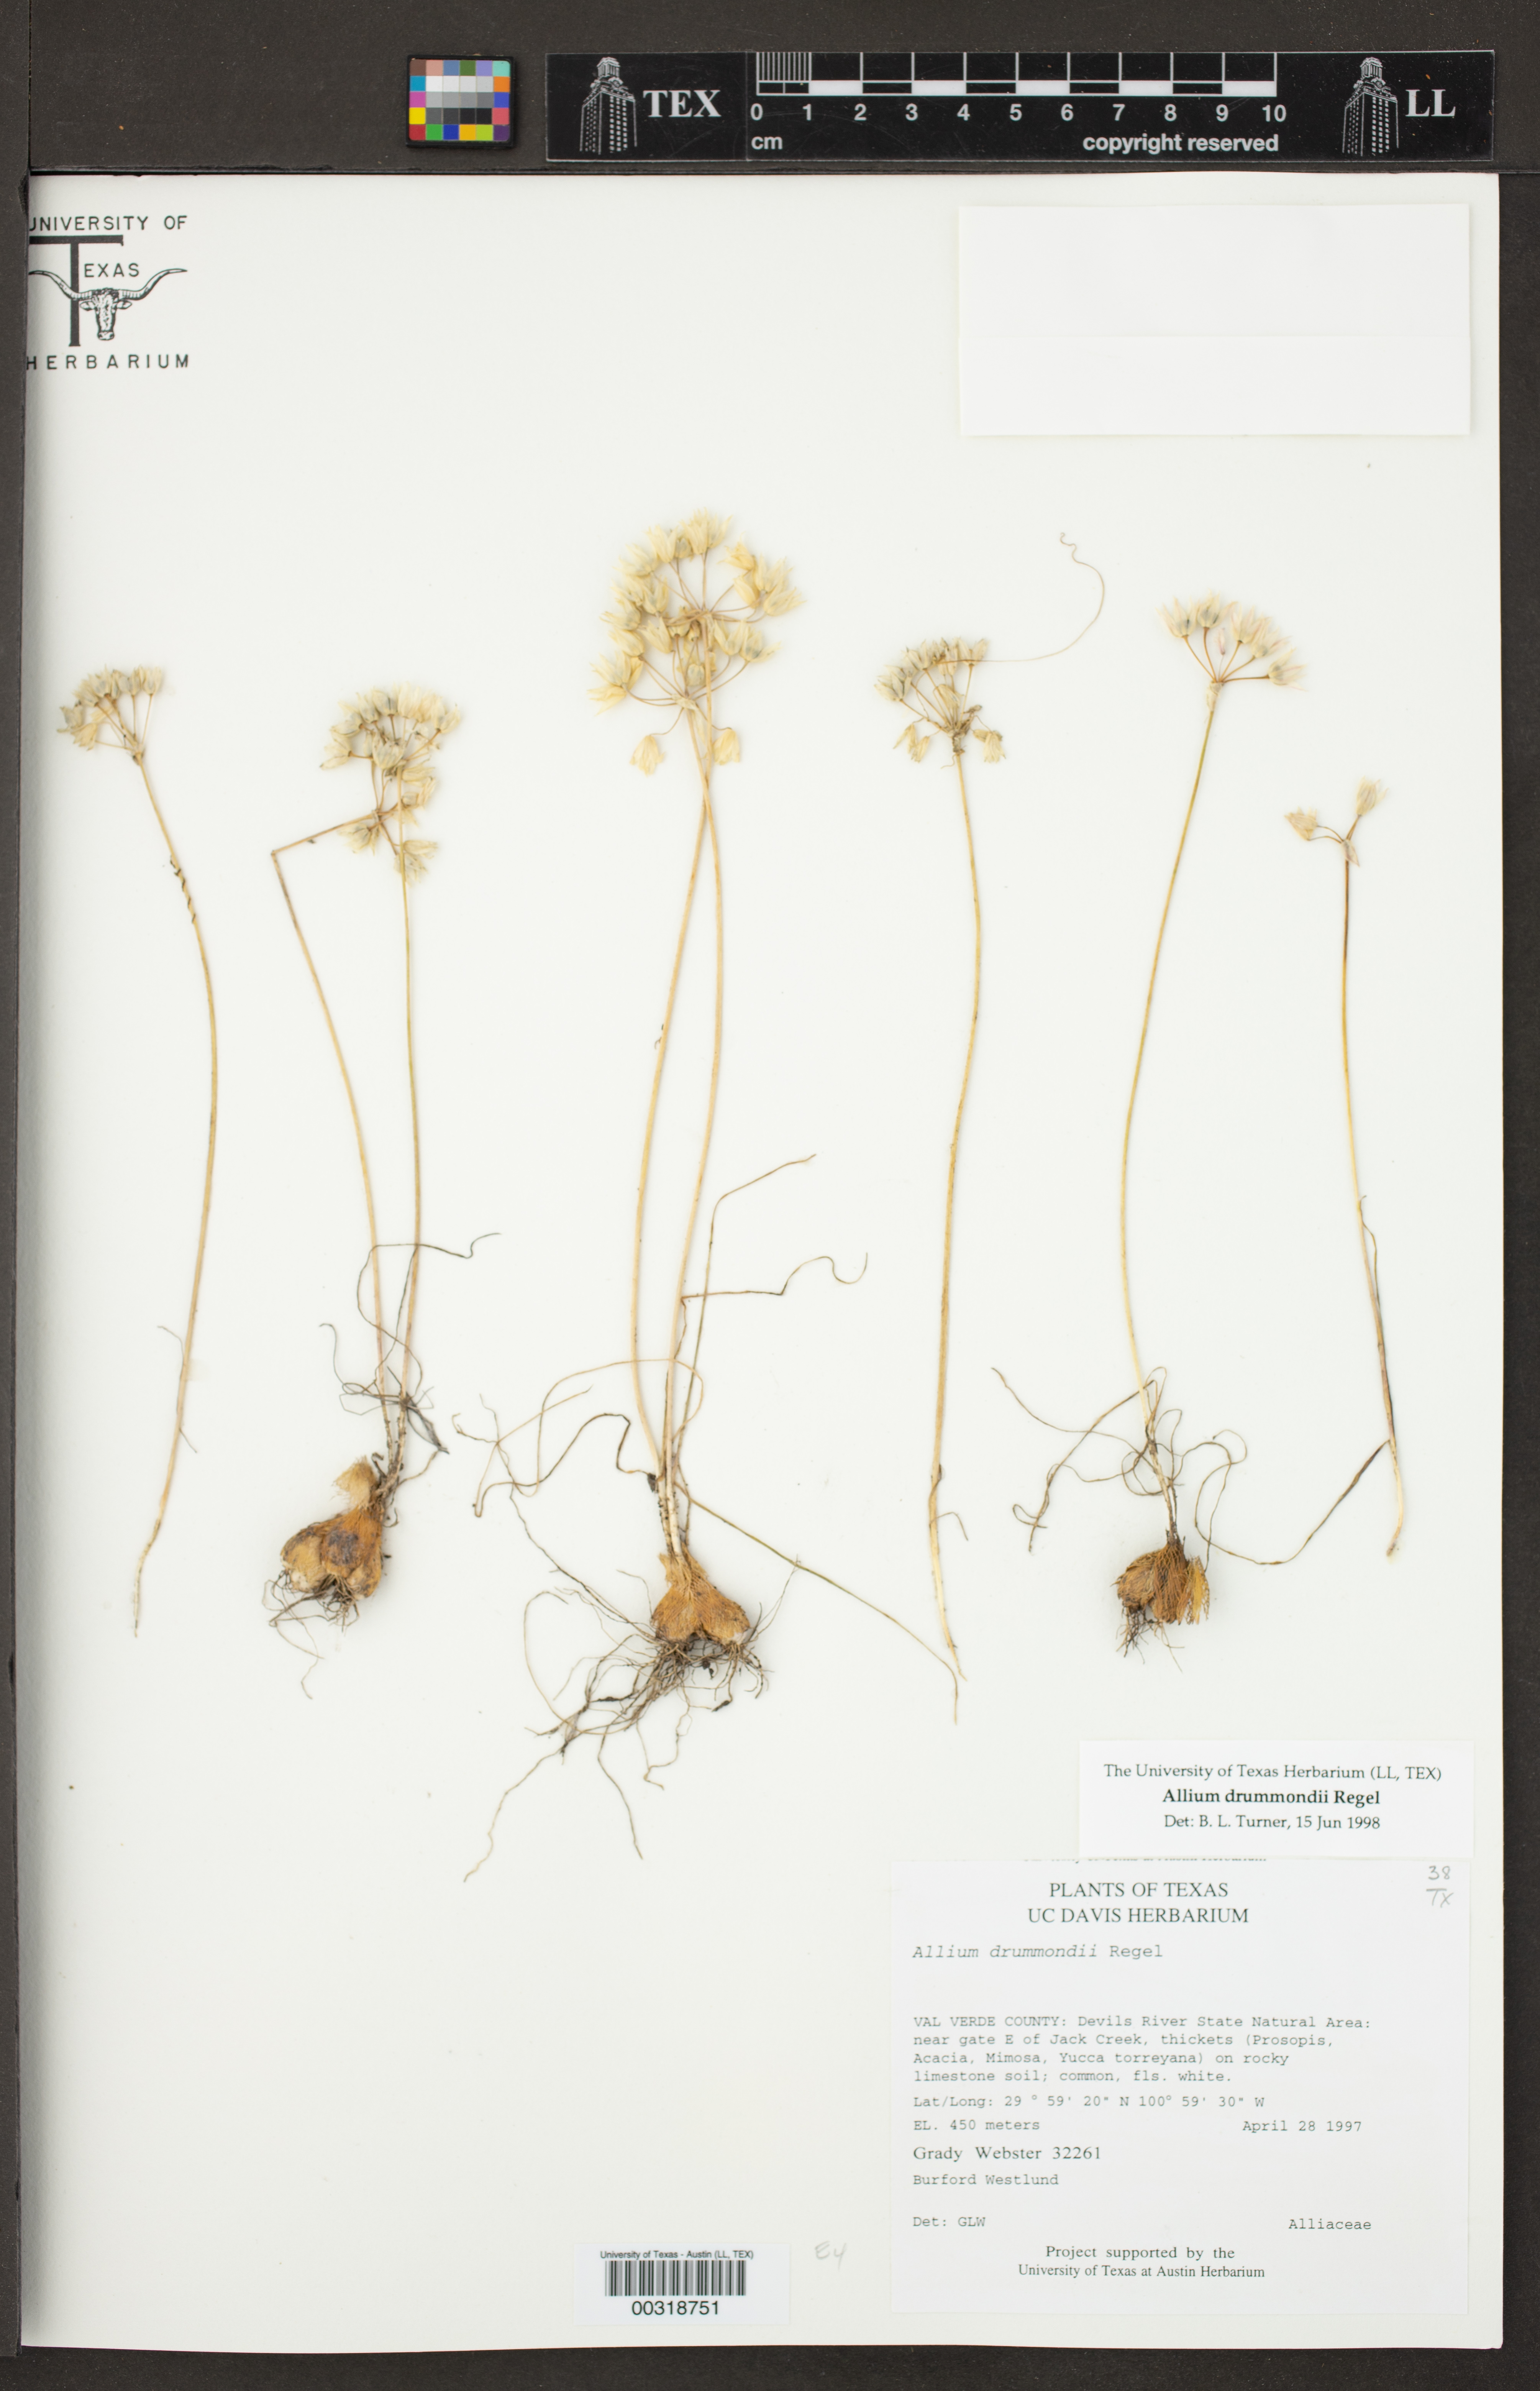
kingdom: Plantae
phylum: Tracheophyta
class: Liliopsida
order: Asparagales
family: Amaryllidaceae
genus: Allium
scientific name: Allium drummondii
